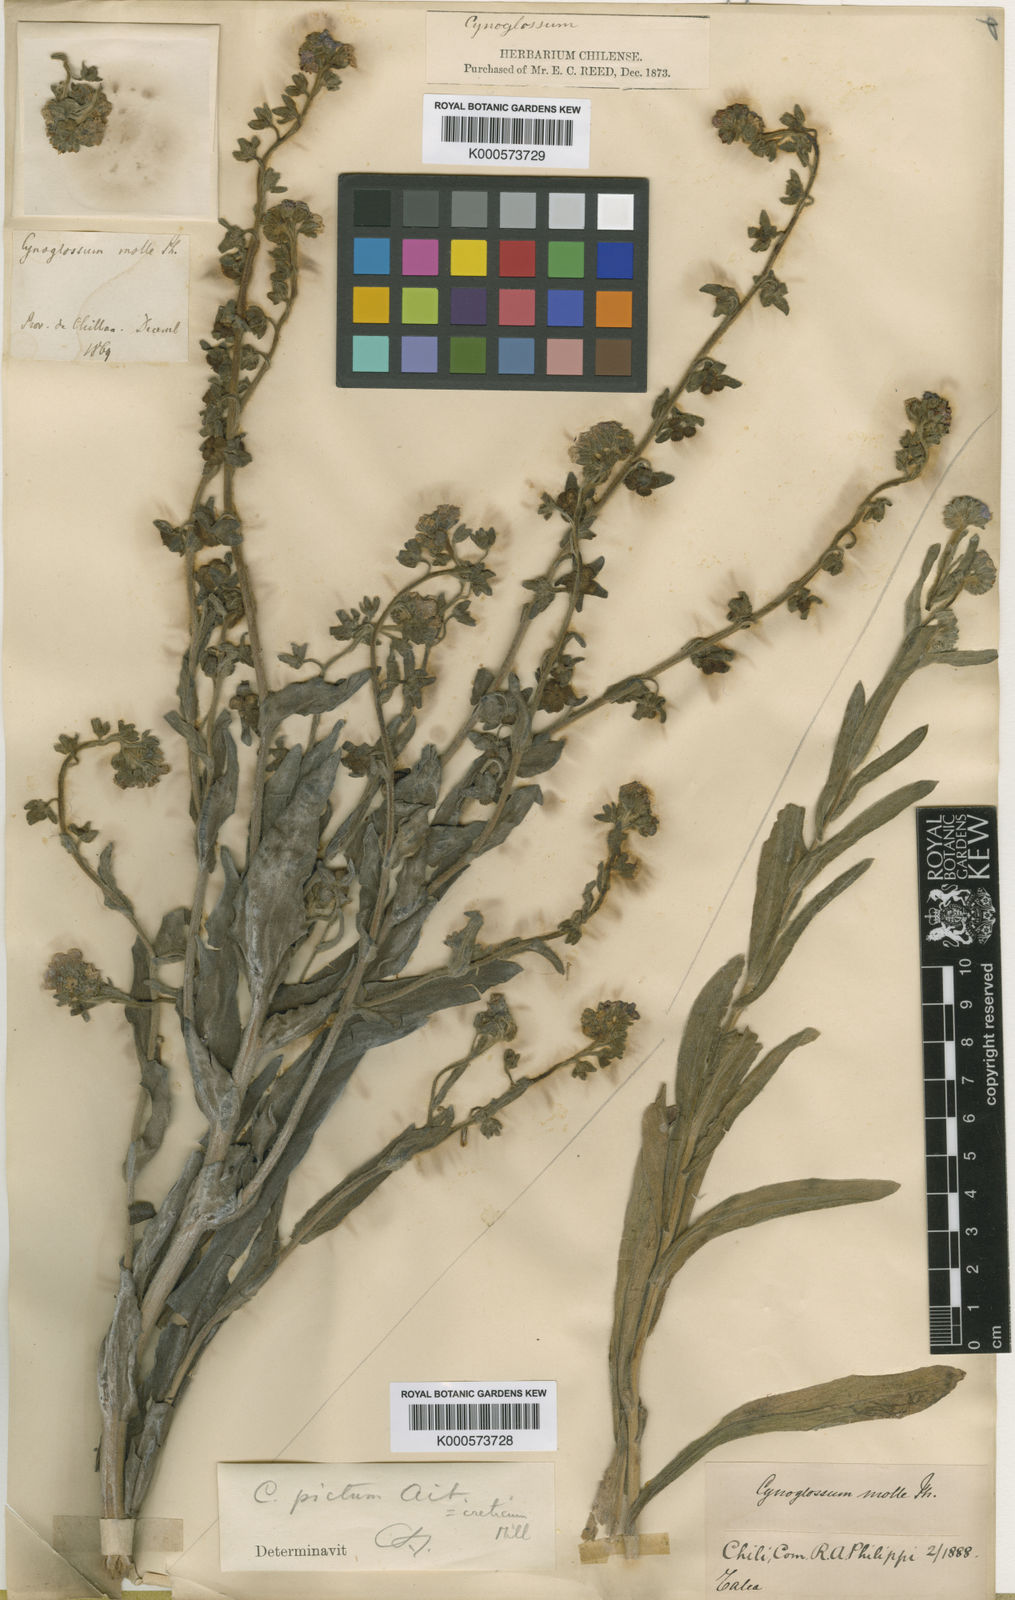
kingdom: Plantae
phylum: Tracheophyta
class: Magnoliopsida
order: Boraginales
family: Boraginaceae
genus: Cynoglossum
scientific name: Cynoglossum creticum
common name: Blue hound's tongue
